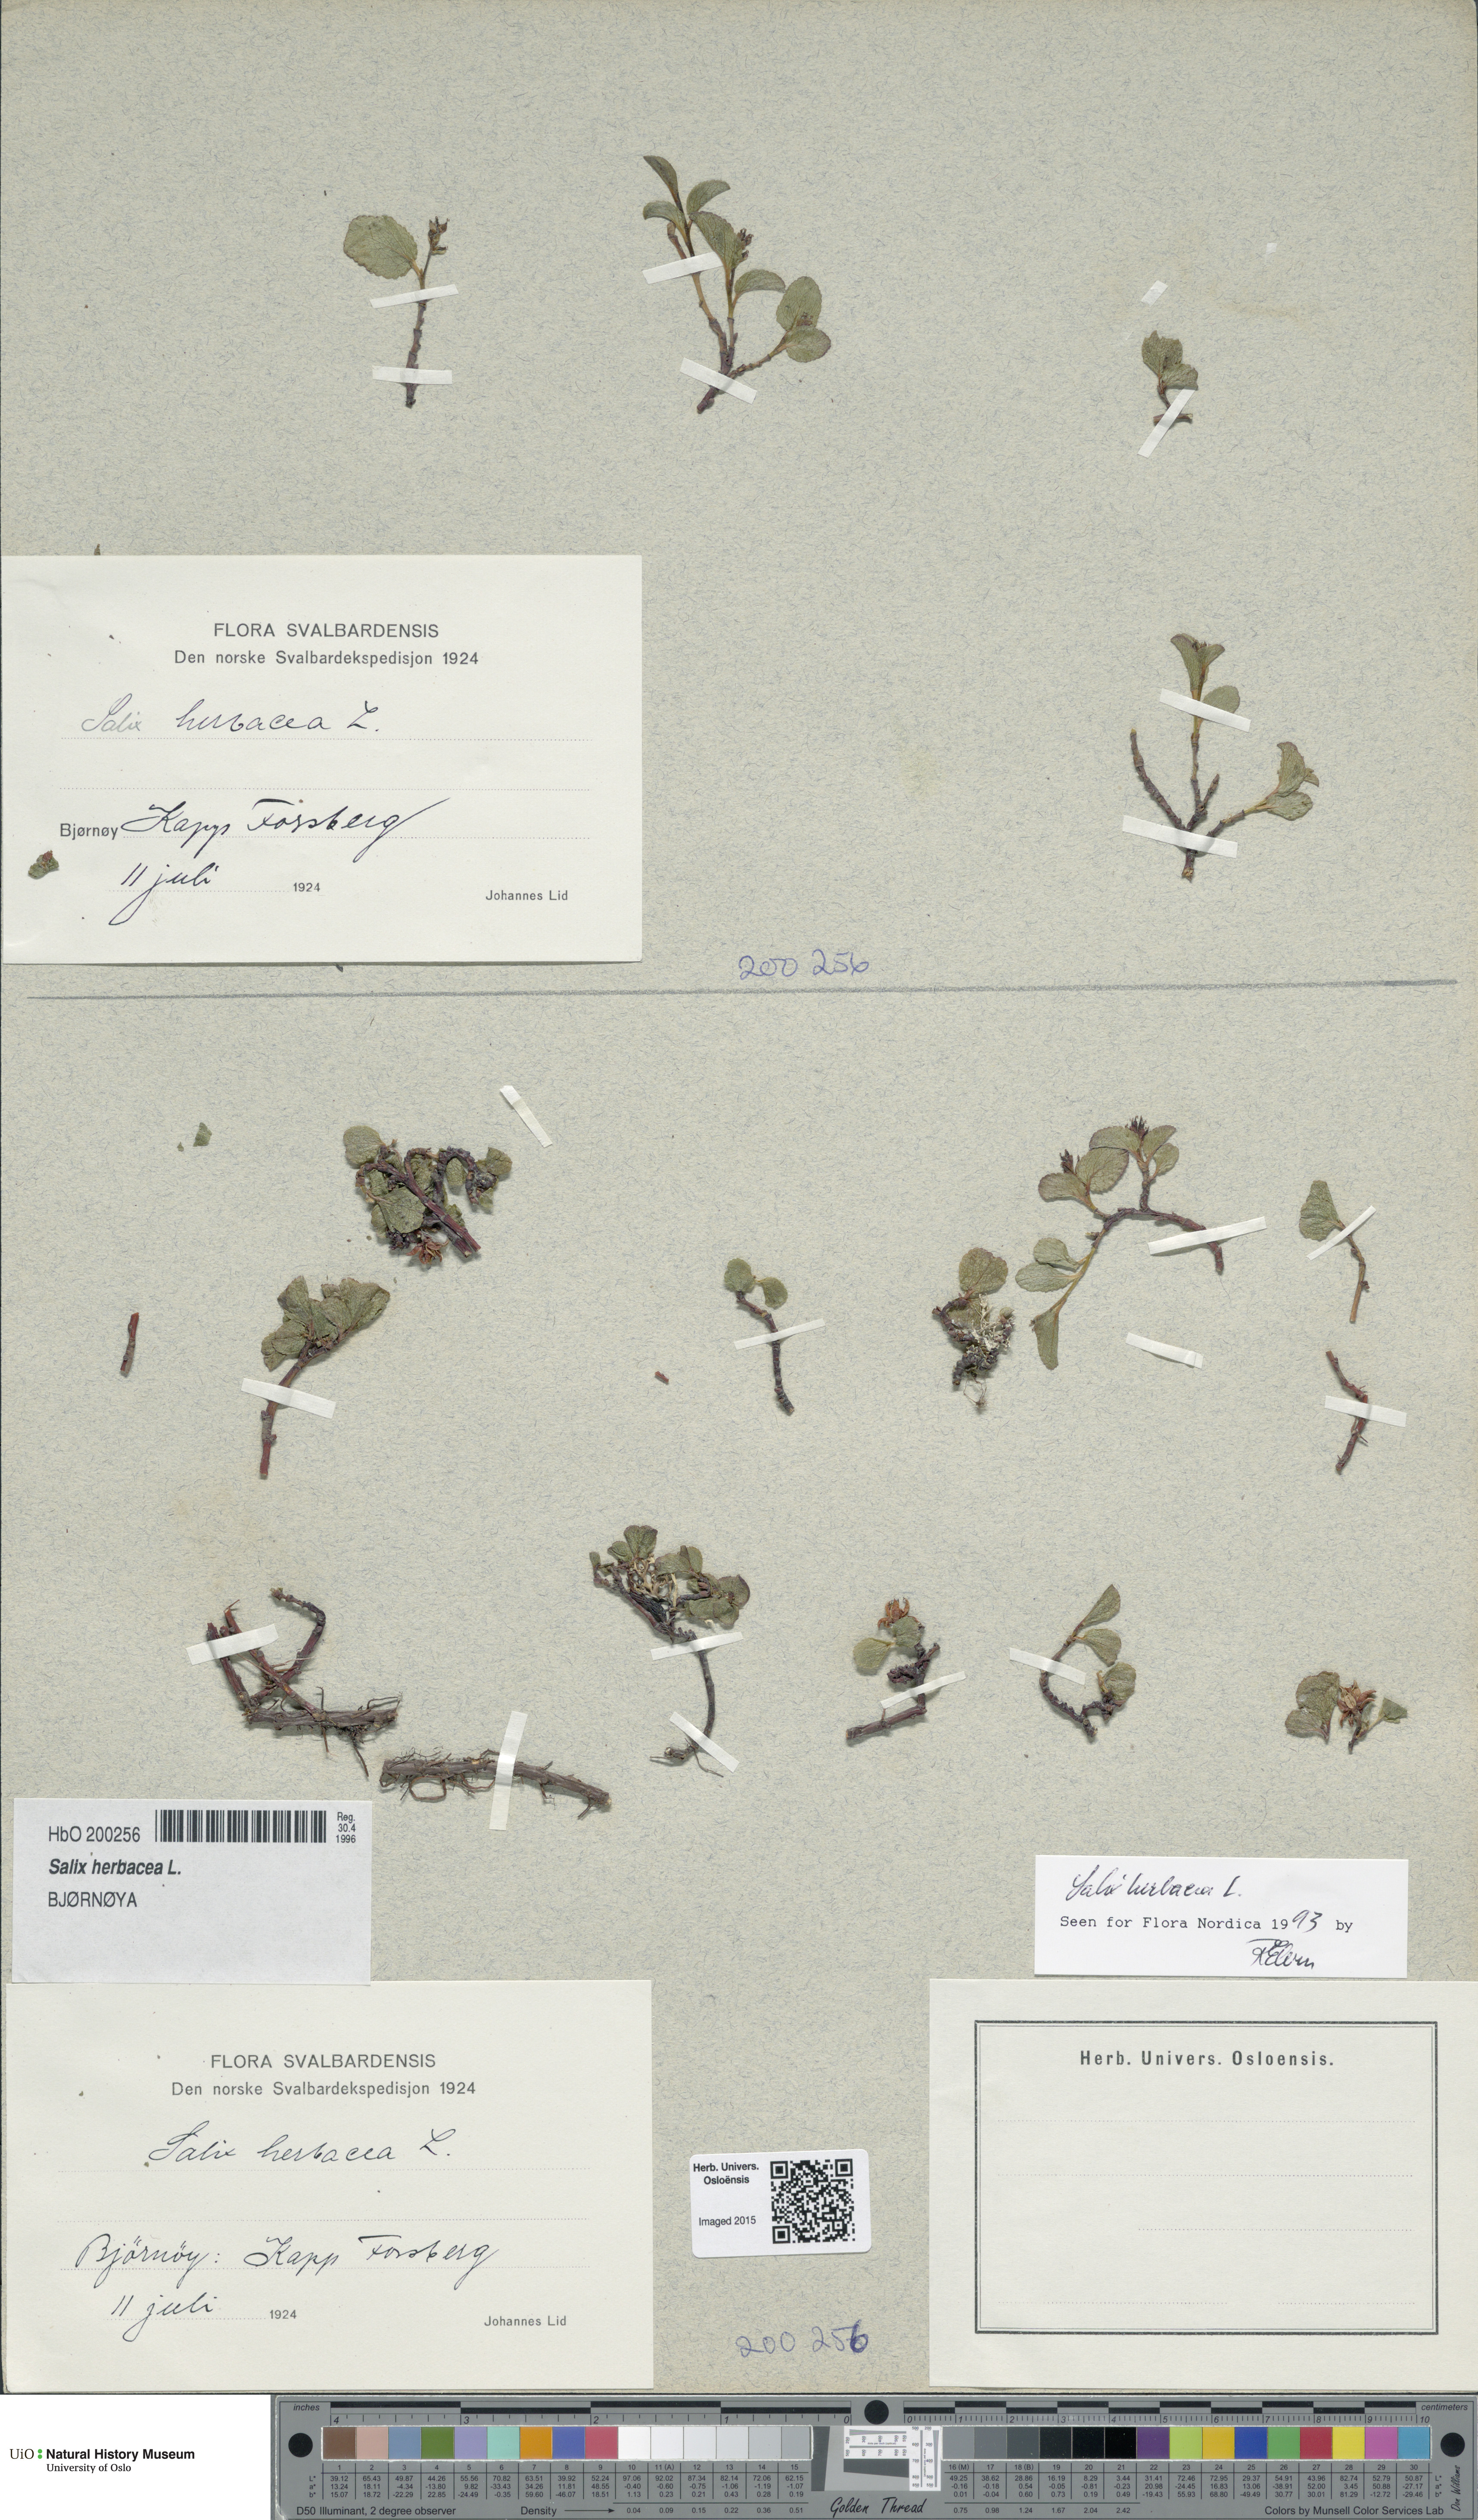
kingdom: Plantae
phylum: Tracheophyta
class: Magnoliopsida
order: Malpighiales
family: Salicaceae
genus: Salix
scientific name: Salix herbacea
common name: Dwarf willow
